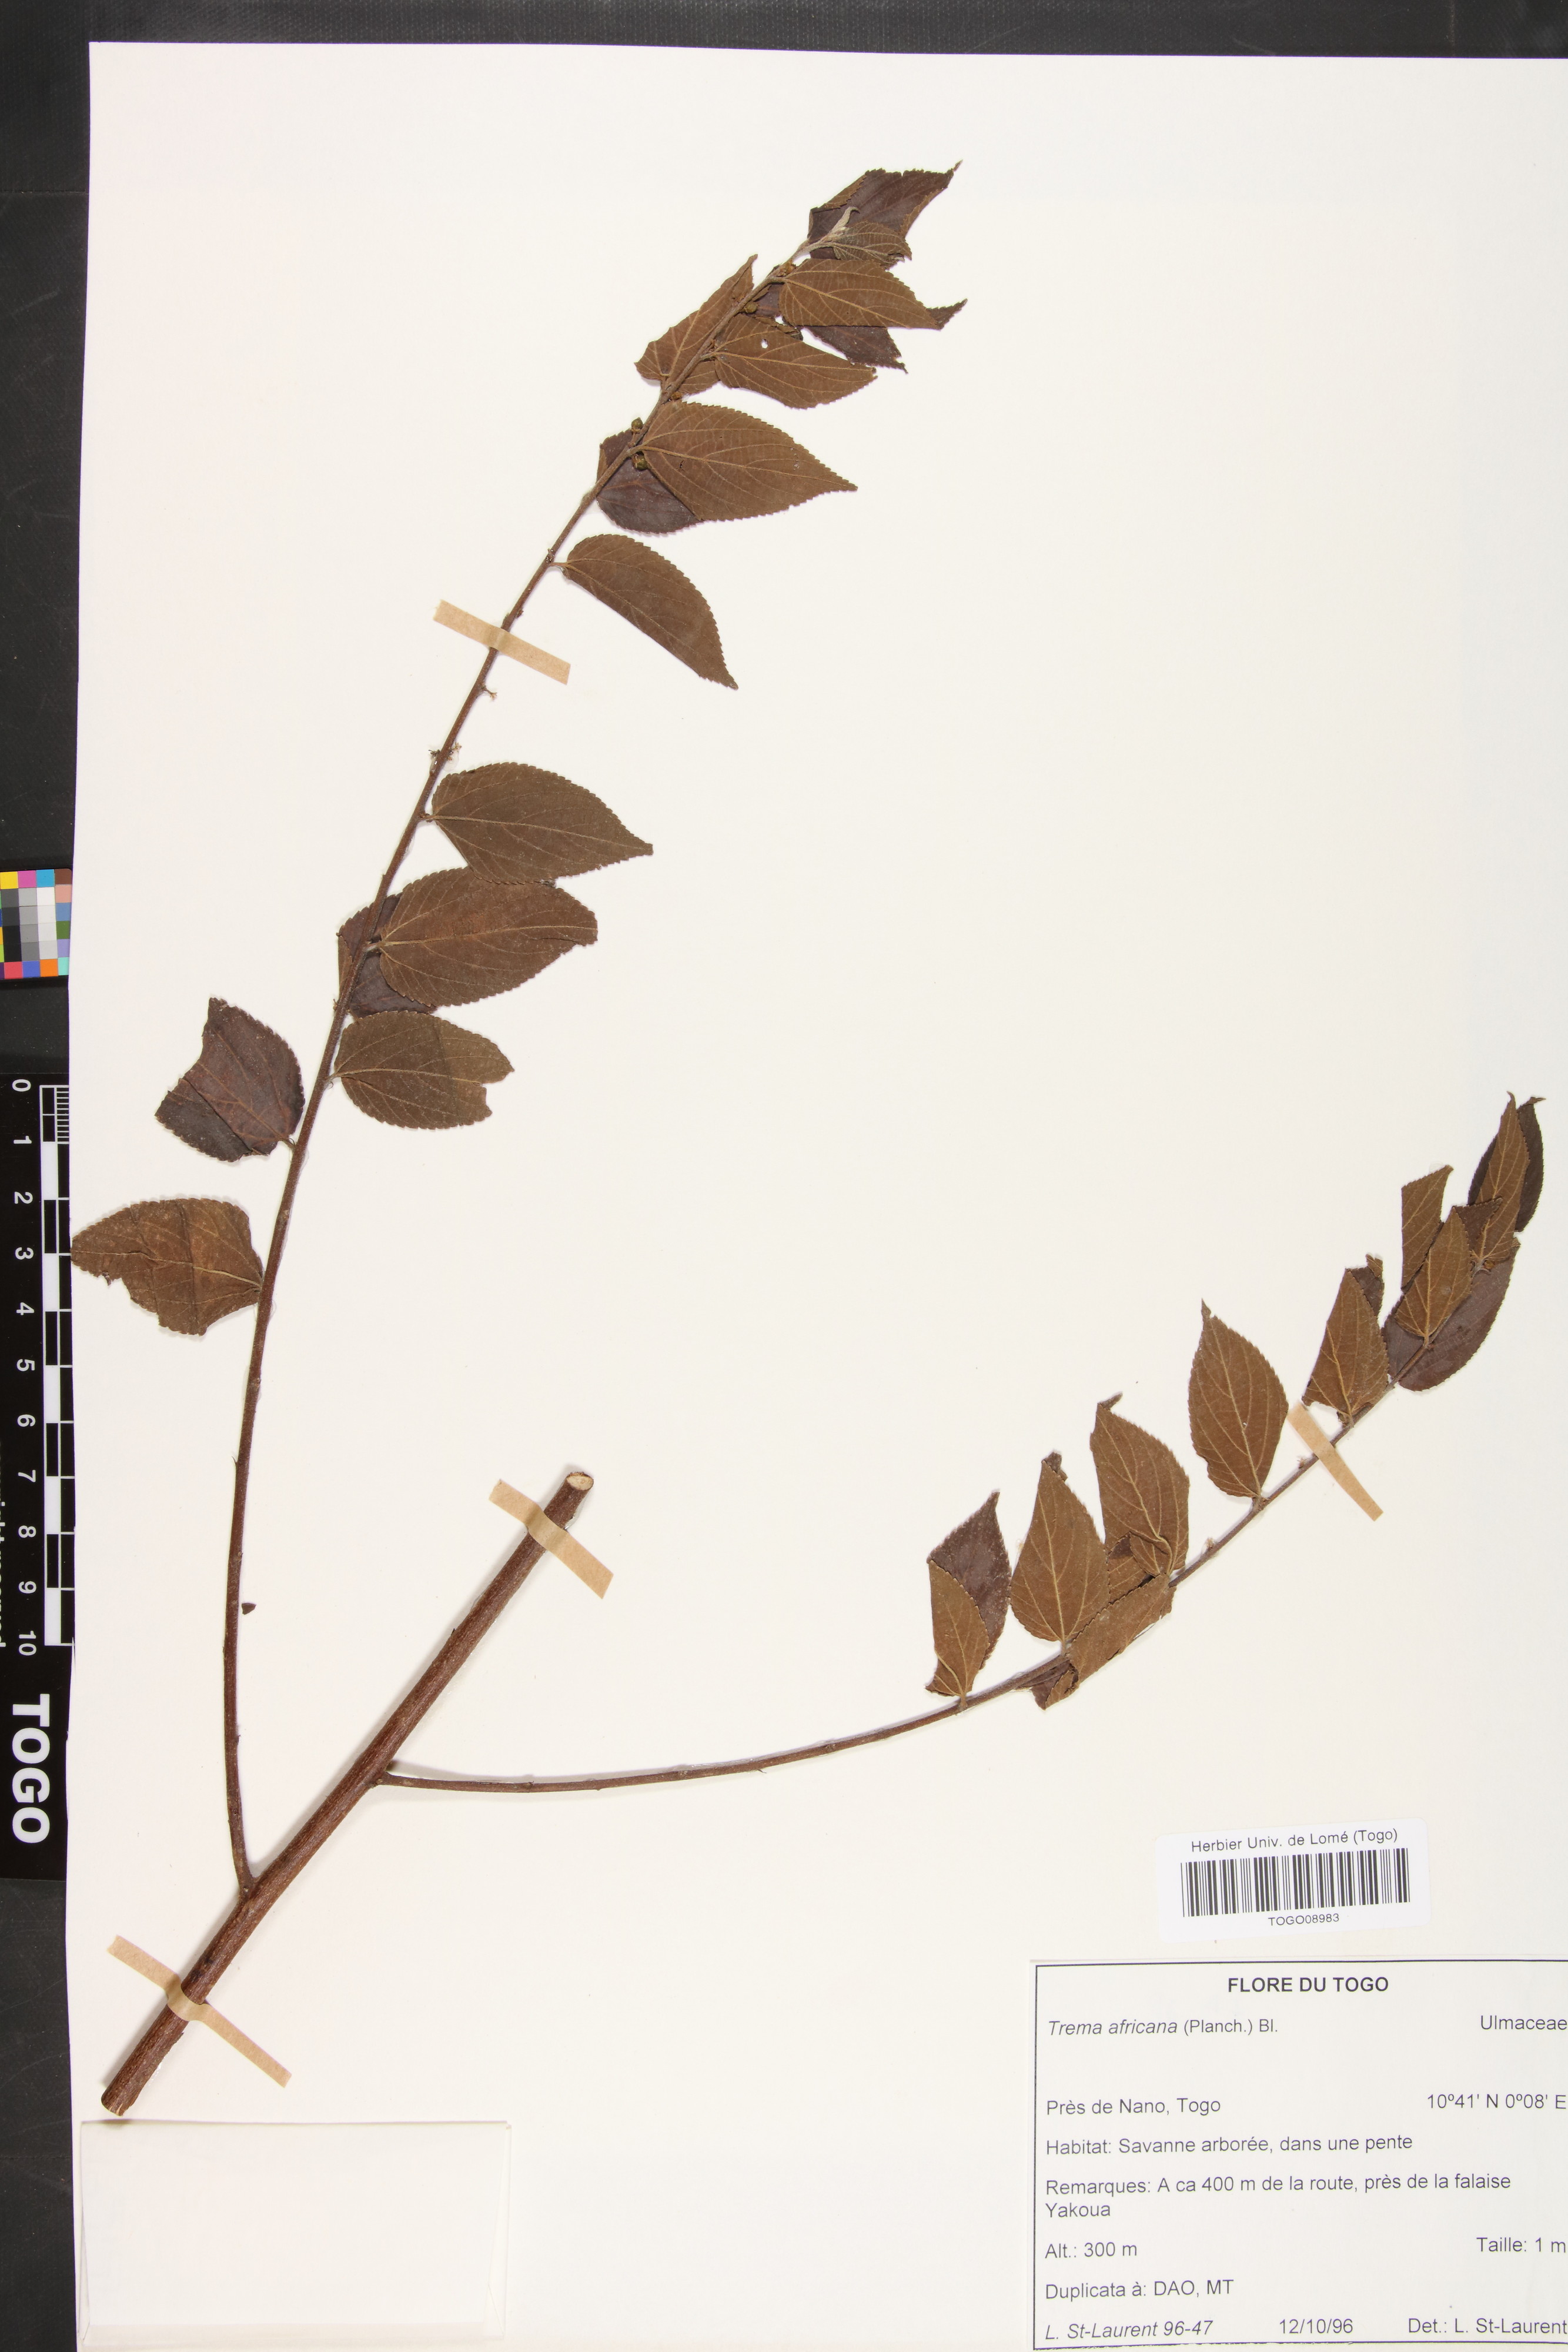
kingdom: Plantae
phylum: Tracheophyta
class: Magnoliopsida
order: Rosales
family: Cannabaceae
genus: Trema
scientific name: Trema orientale
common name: Indian charcoal tree
